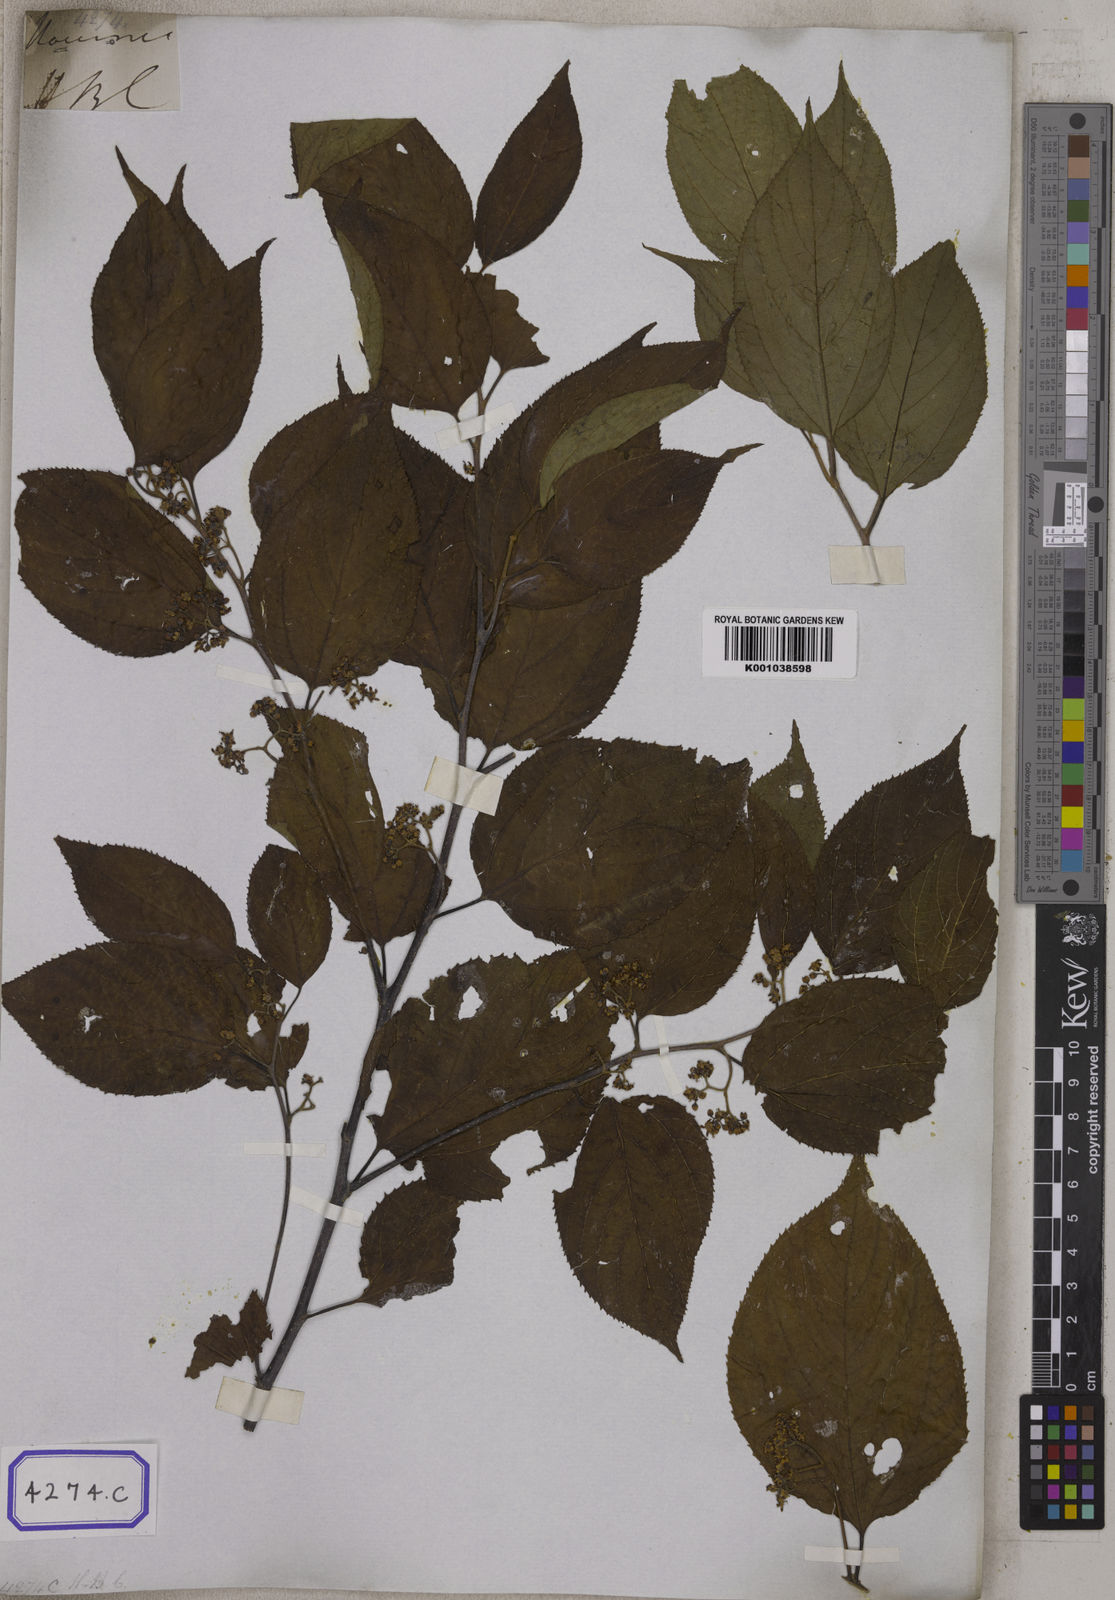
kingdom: Plantae
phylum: Tracheophyta
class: Magnoliopsida
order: Rosales
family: Rhamnaceae
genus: Hovenia
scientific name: Hovenia dulcis
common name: Japanese raisintree
